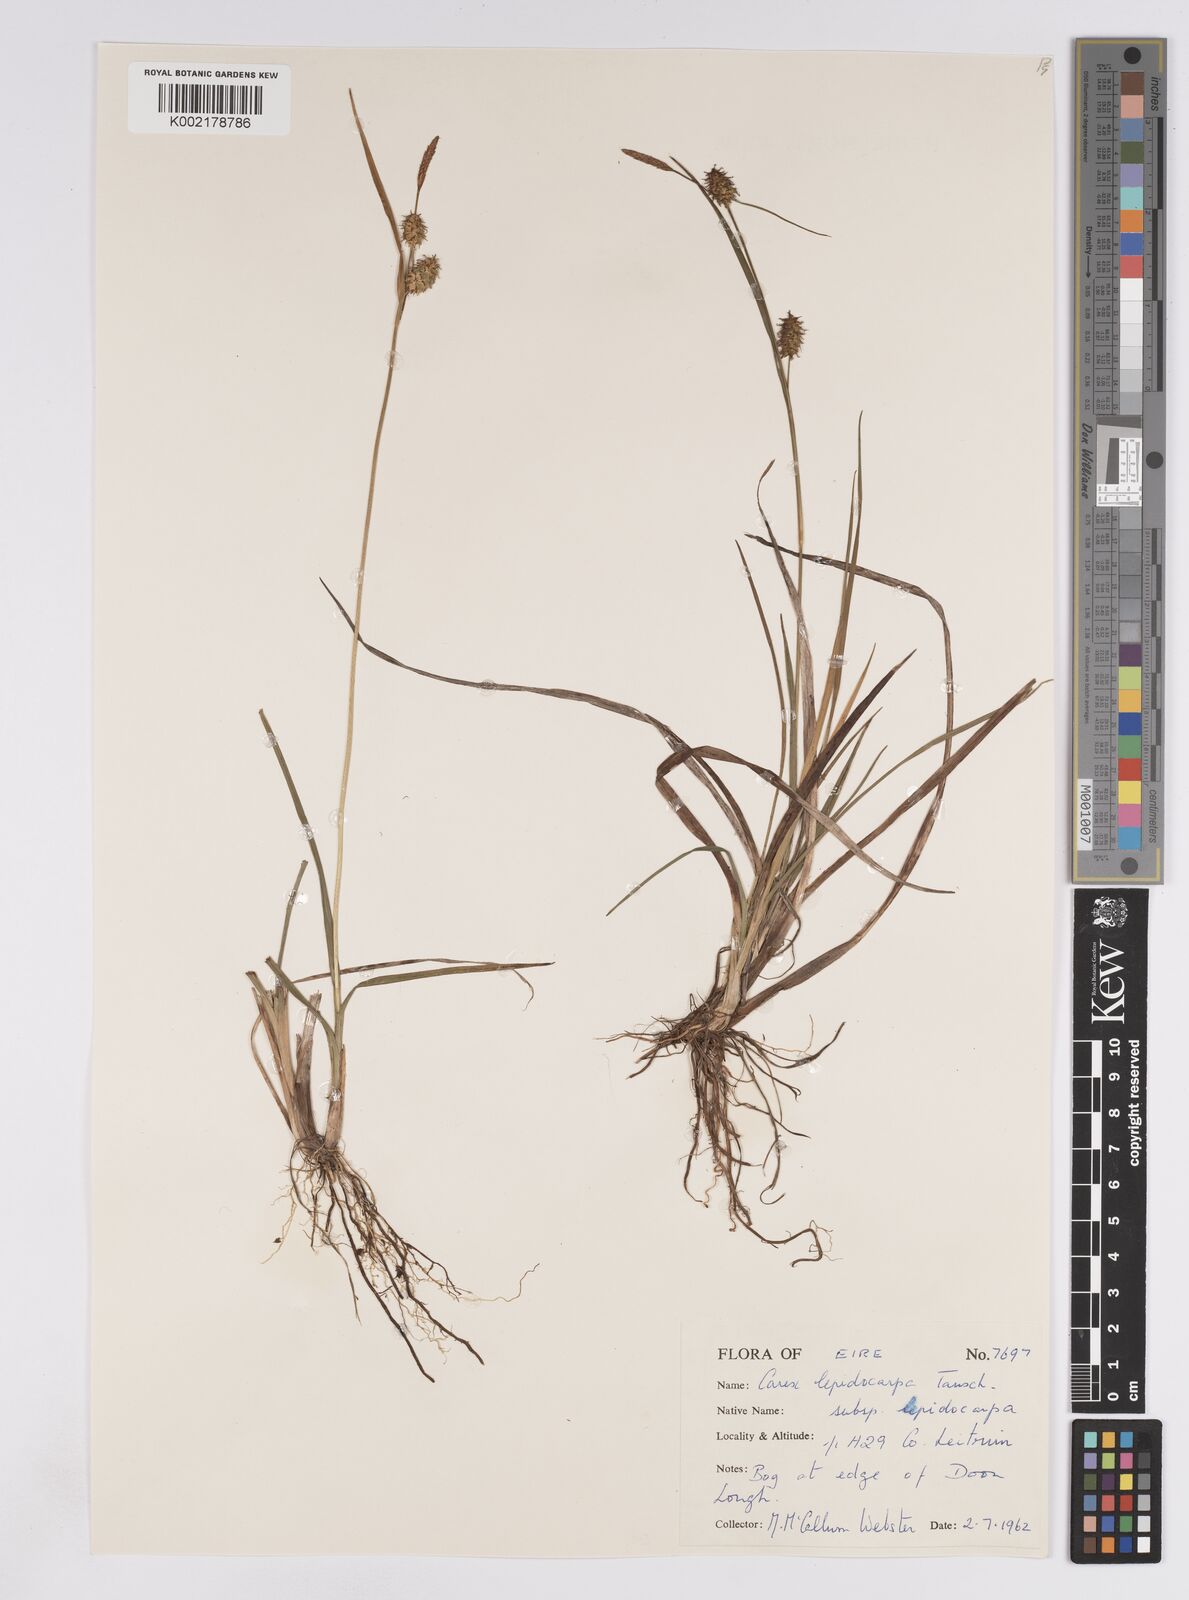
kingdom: Plantae
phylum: Tracheophyta
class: Liliopsida
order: Poales
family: Cyperaceae
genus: Carex
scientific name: Carex lepidocarpa
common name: Long-stalked yellow-sedge
